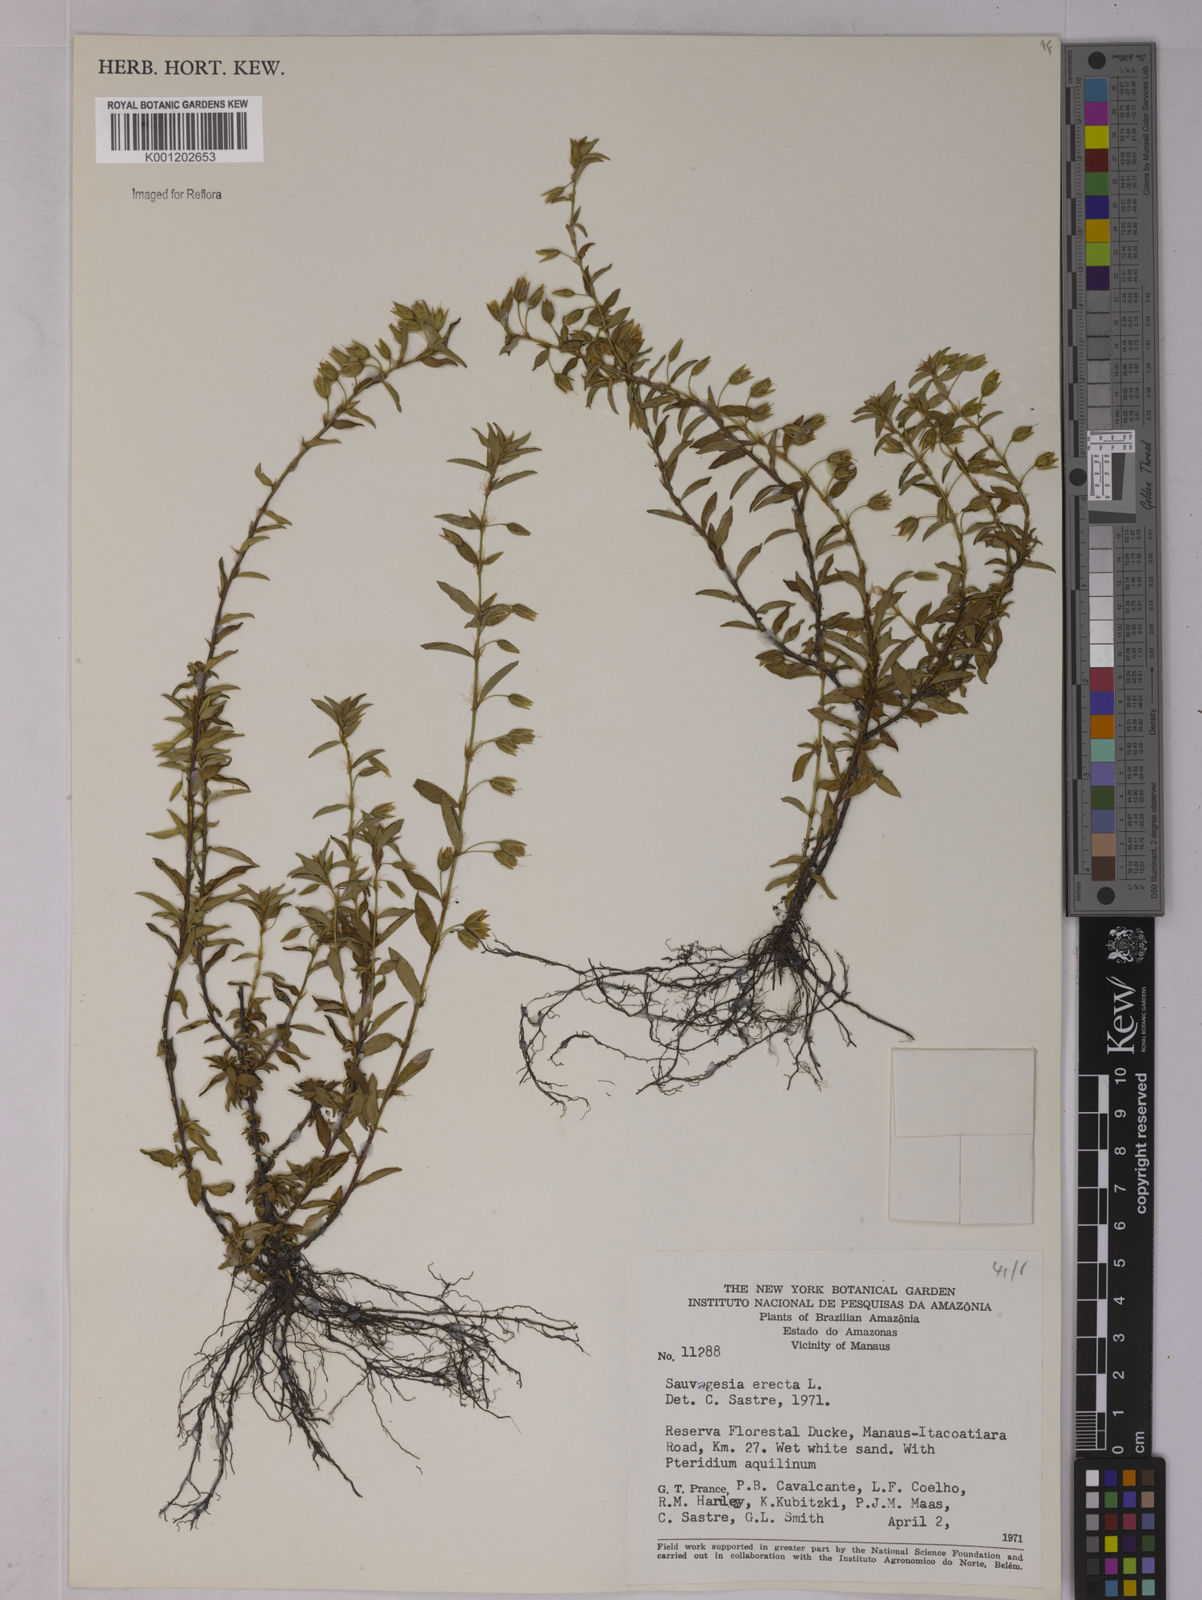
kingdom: Plantae
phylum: Tracheophyta
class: Magnoliopsida
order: Malpighiales
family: Ochnaceae
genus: Sauvagesia
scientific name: Sauvagesia erecta
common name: Creole tea
